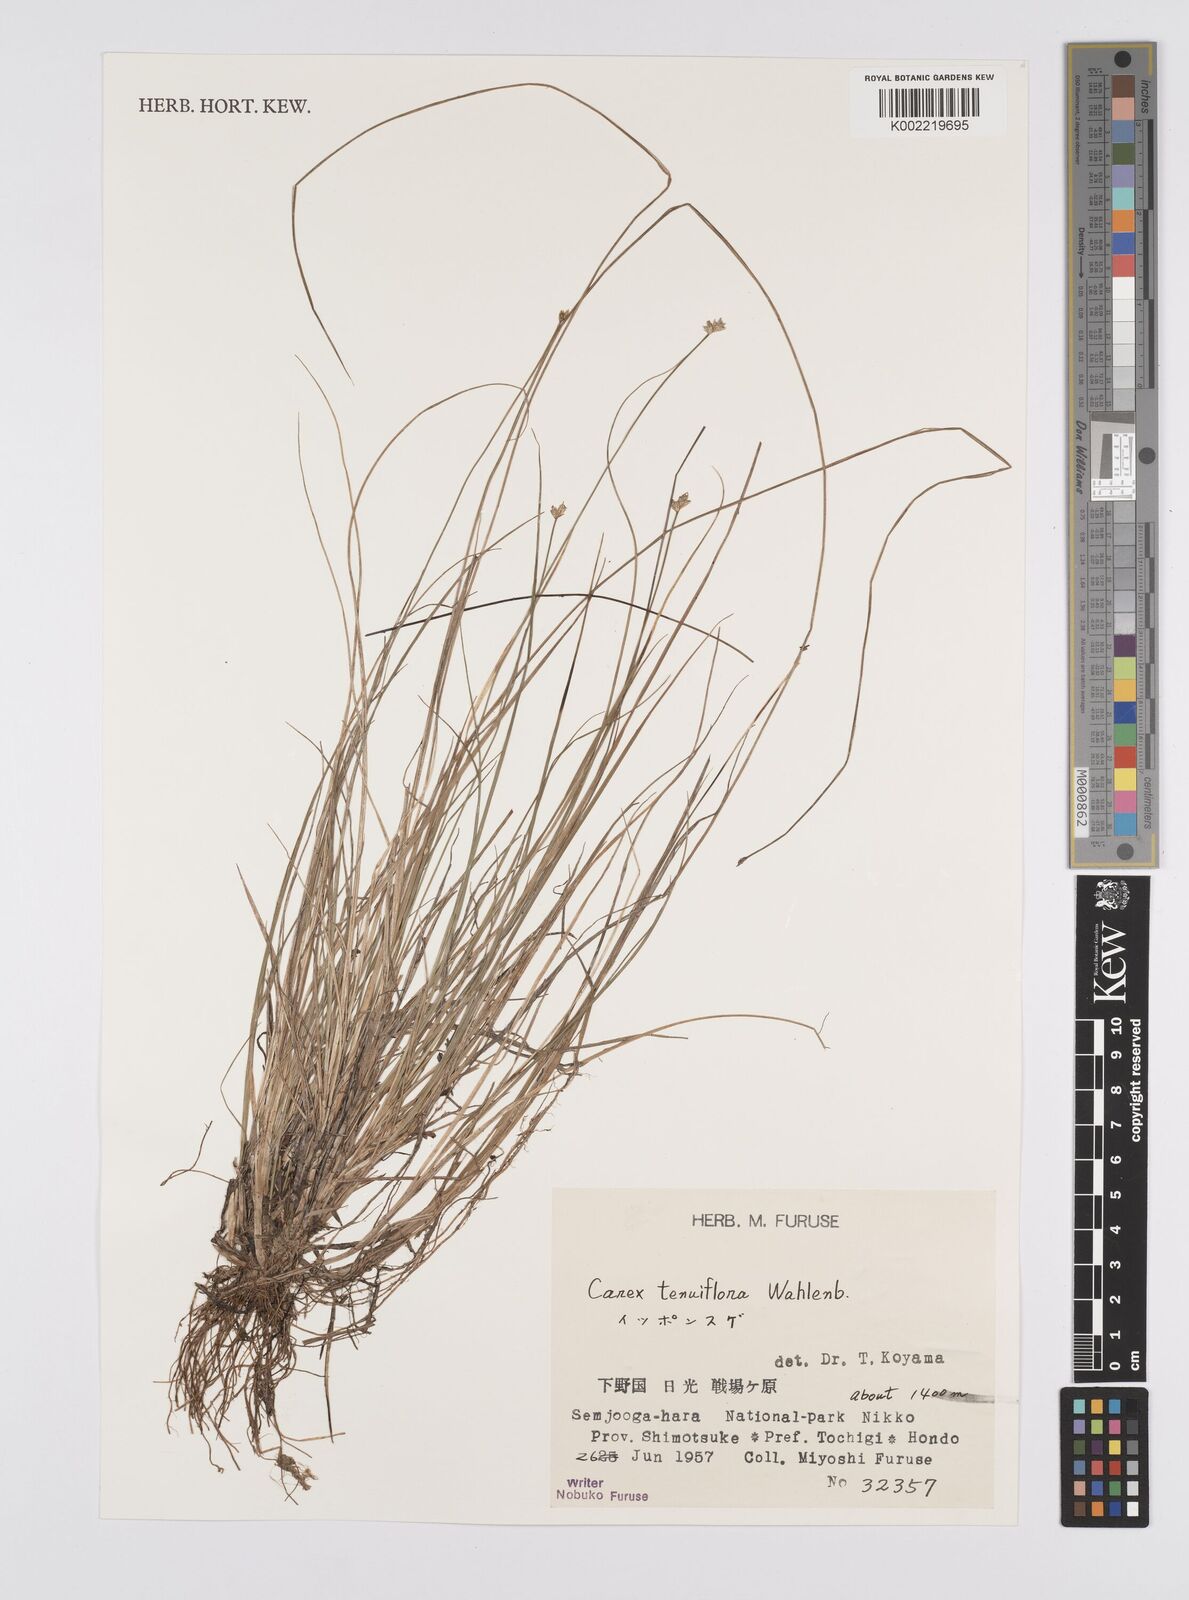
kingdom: Plantae
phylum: Tracheophyta
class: Liliopsida
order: Poales
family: Cyperaceae
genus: Carex
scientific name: Carex tenuiflora
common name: Sparse-flowered sedge
